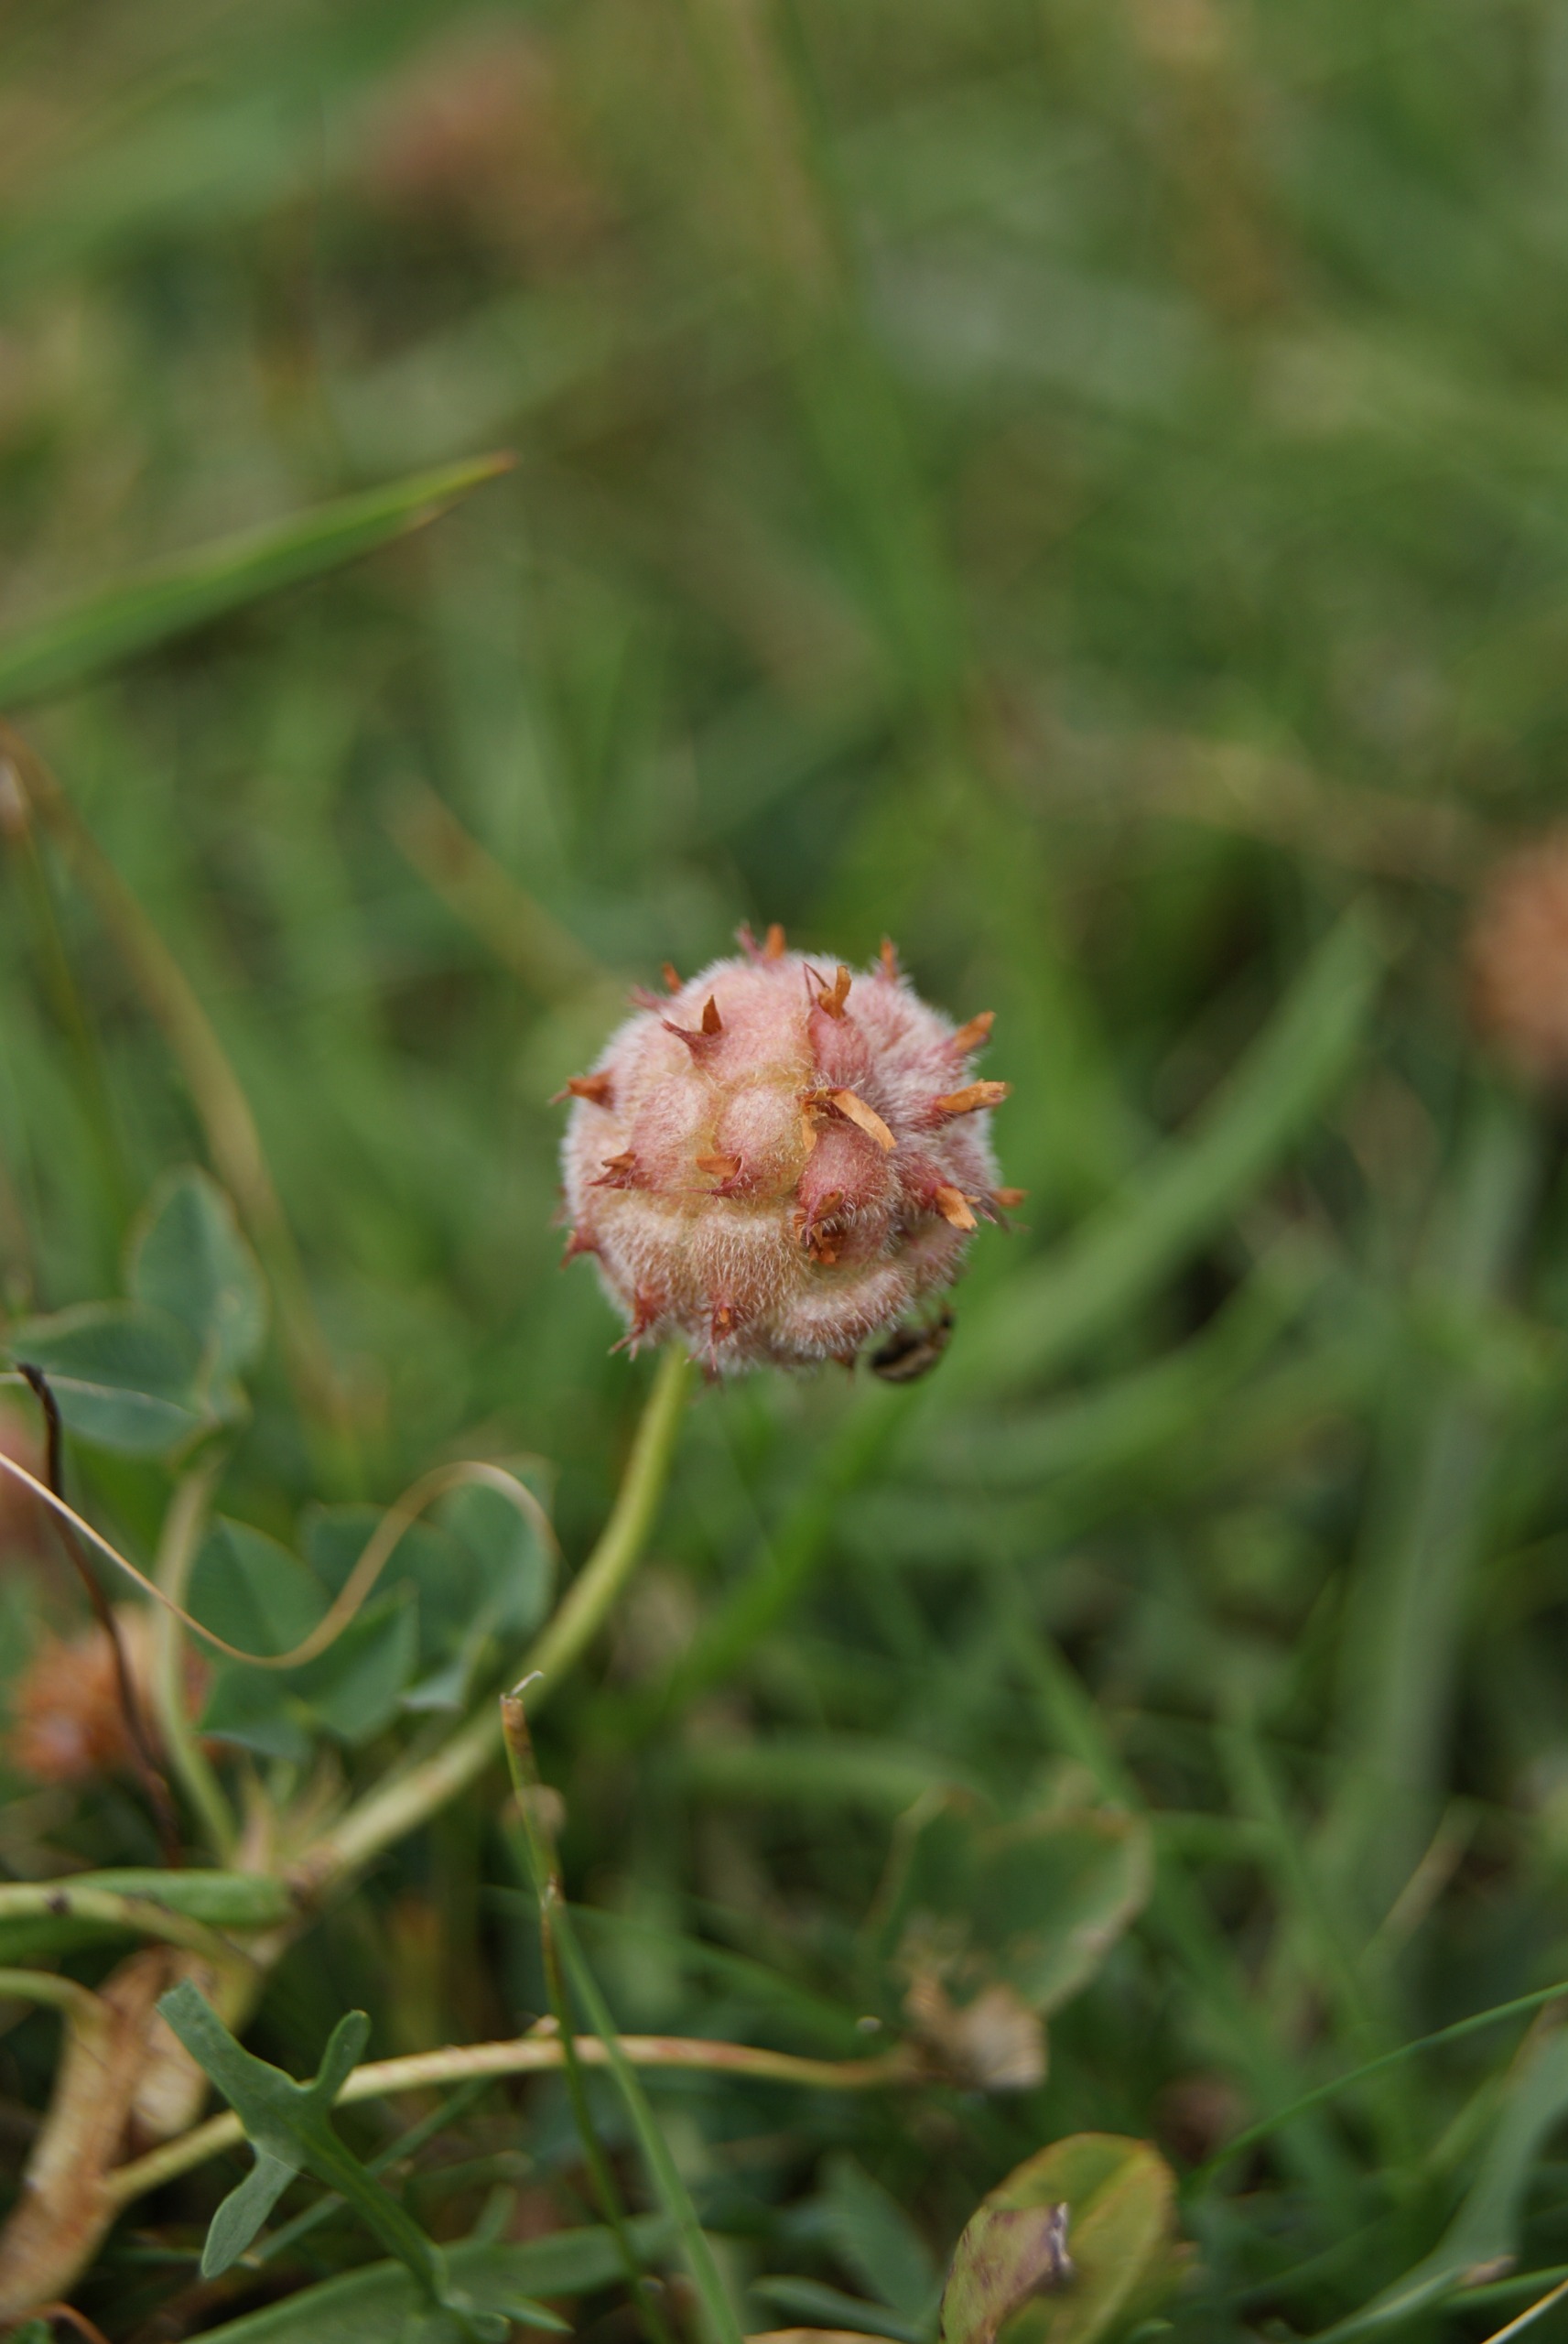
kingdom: Plantae
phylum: Tracheophyta
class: Magnoliopsida
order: Fabales
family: Fabaceae
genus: Trifolium
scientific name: Trifolium fragiferum
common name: Jordbær-kløver
